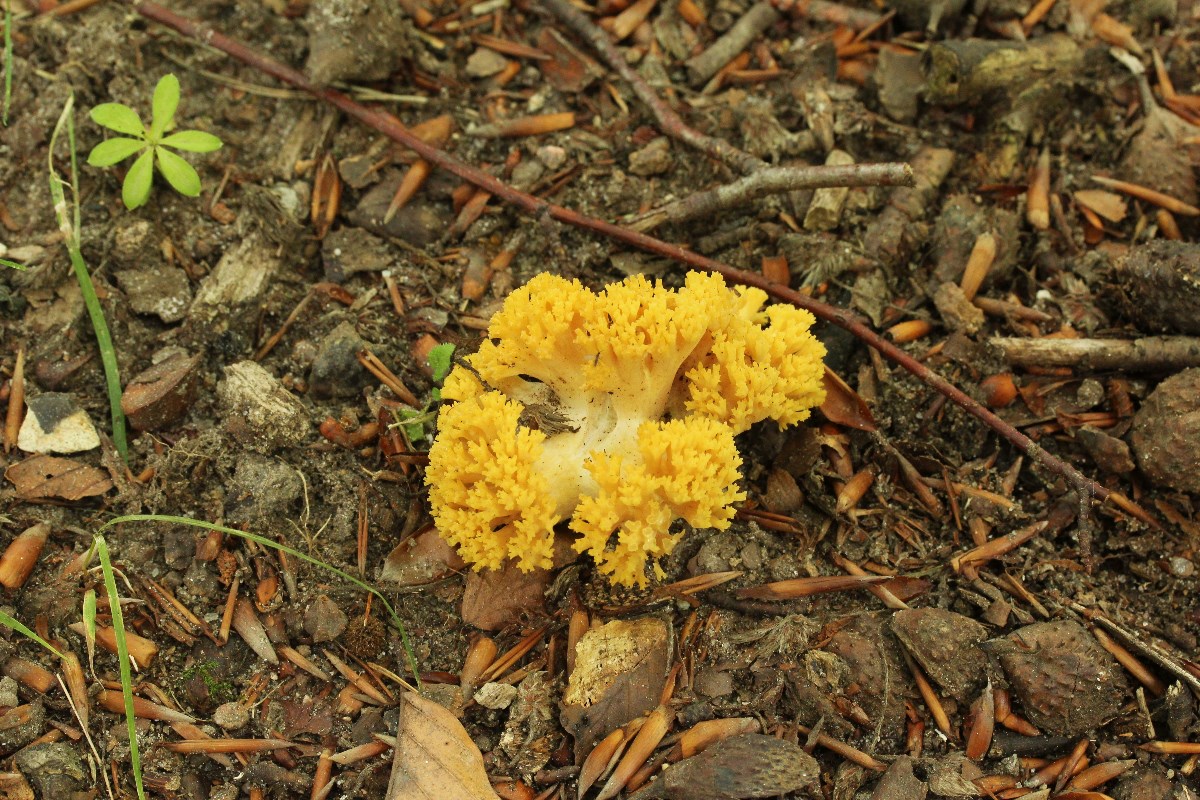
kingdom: Fungi
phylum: Basidiomycota
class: Agaricomycetes
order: Gomphales
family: Gomphaceae
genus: Ramaria
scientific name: Ramaria krieglsteineri
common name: smalsporet koralsvamp
